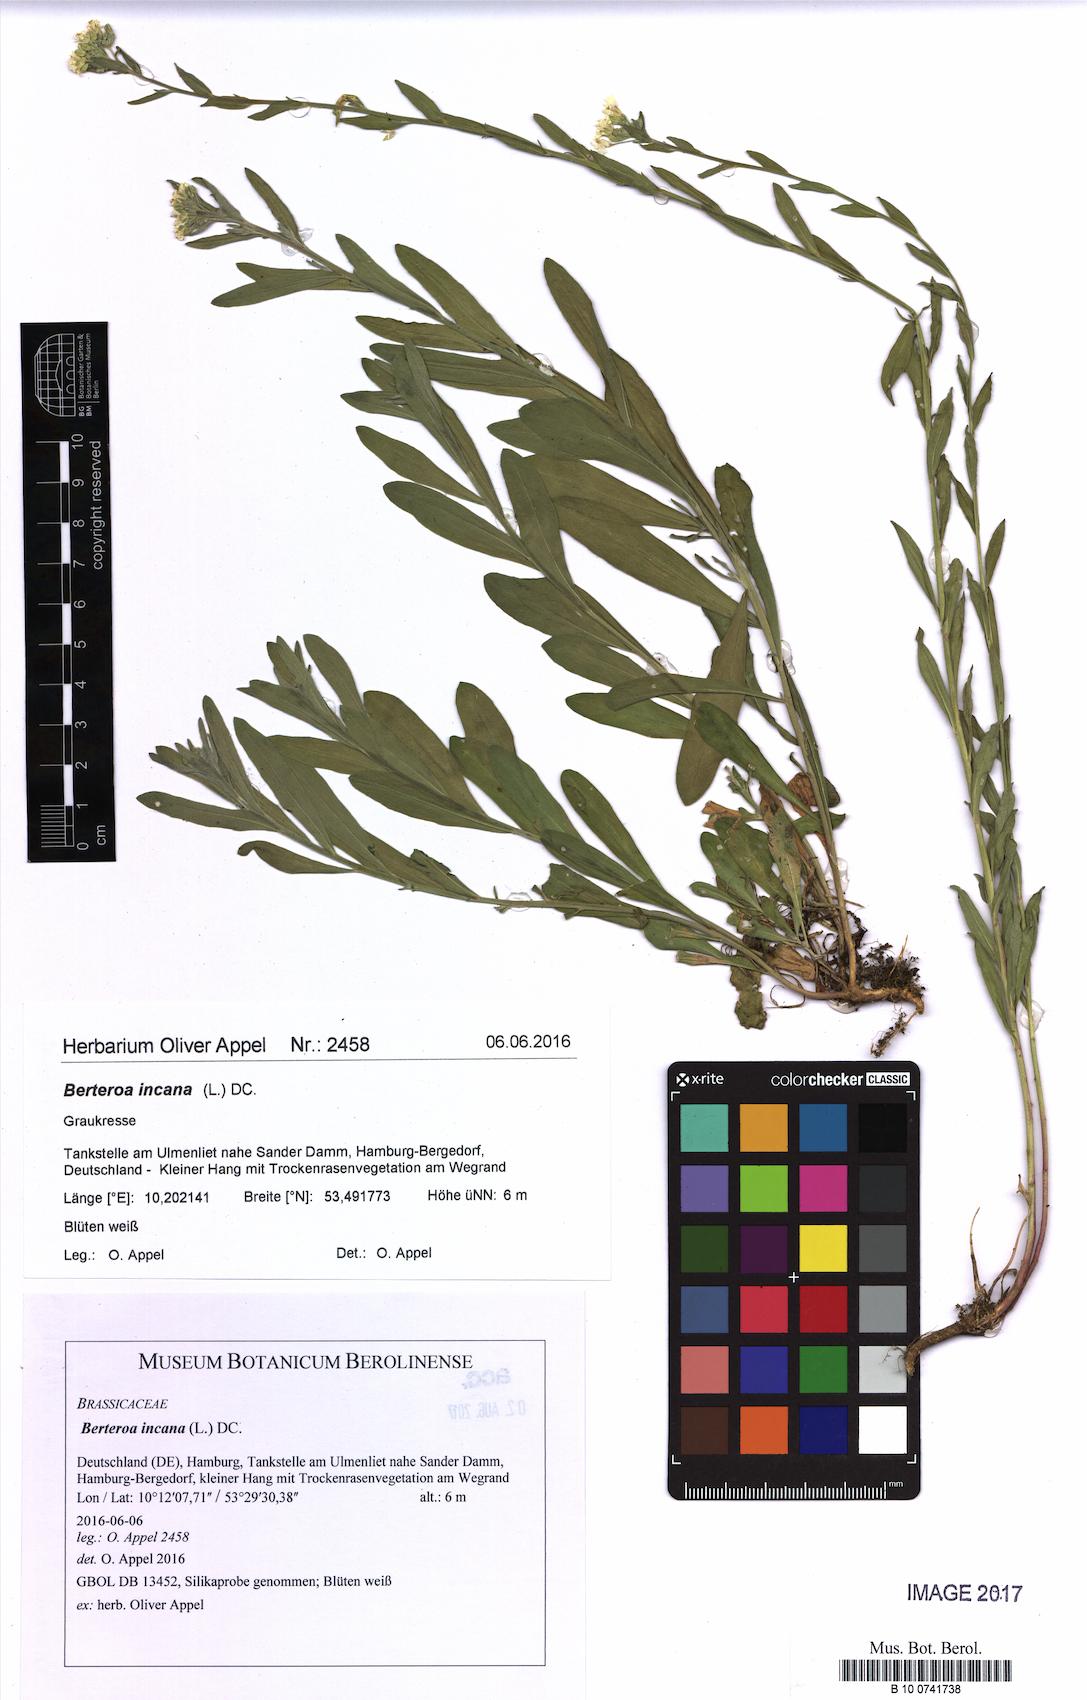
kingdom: Plantae
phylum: Tracheophyta
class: Magnoliopsida
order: Brassicales
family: Brassicaceae
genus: Berteroa
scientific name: Berteroa incana
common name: Hoary alison
